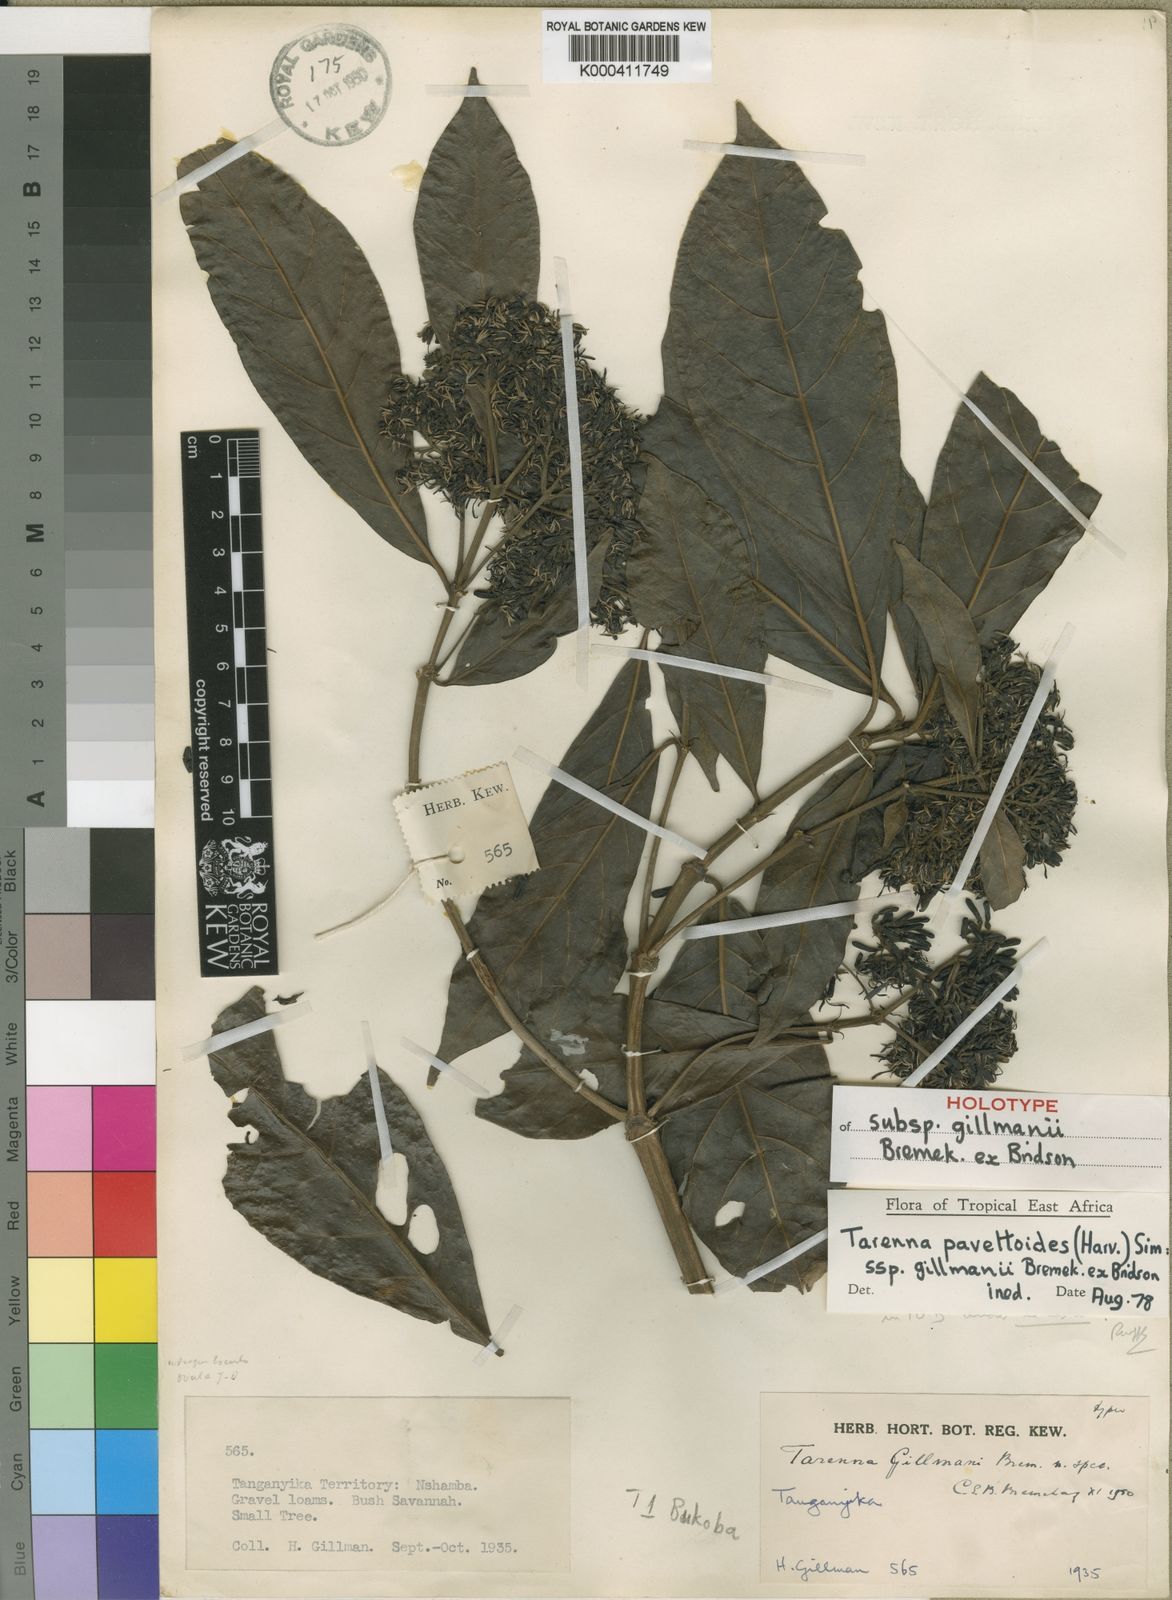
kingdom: Plantae
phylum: Tracheophyta
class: Magnoliopsida
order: Gentianales
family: Rubiaceae
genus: Tarenna
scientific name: Tarenna pavettoides
